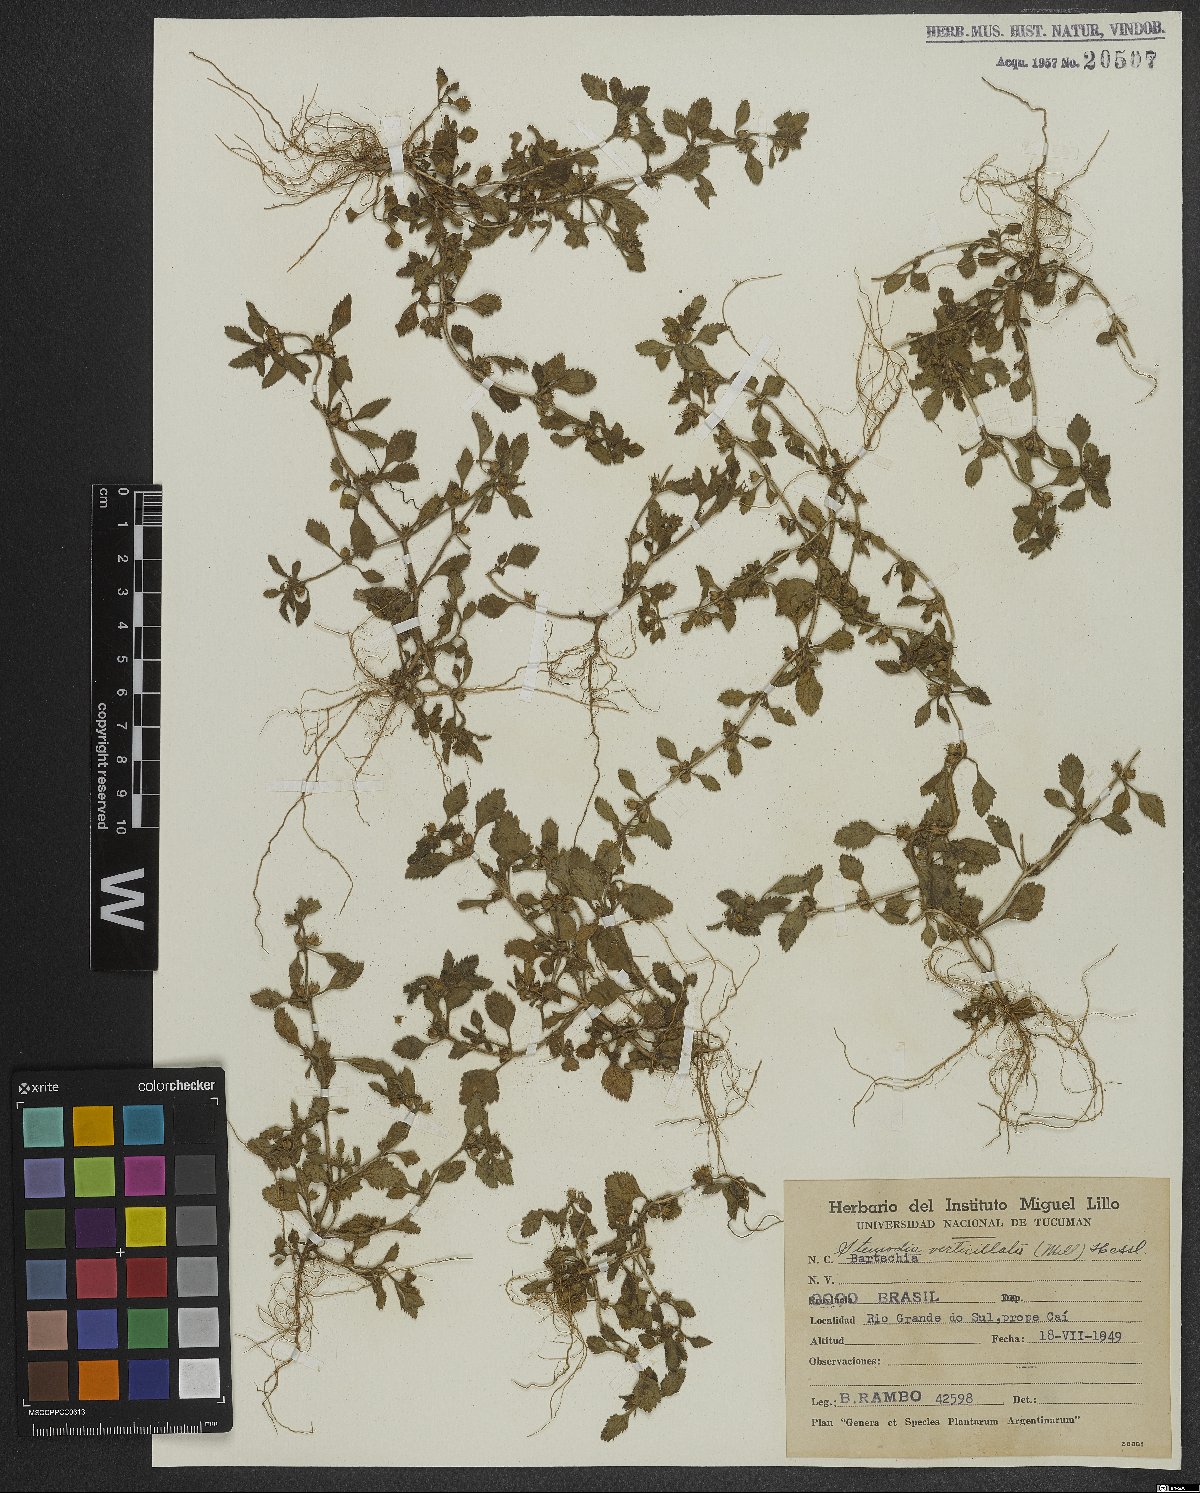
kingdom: Plantae
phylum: Tracheophyta
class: Magnoliopsida
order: Lamiales
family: Plantaginaceae
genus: Stemodia
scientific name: Stemodia verticillata
